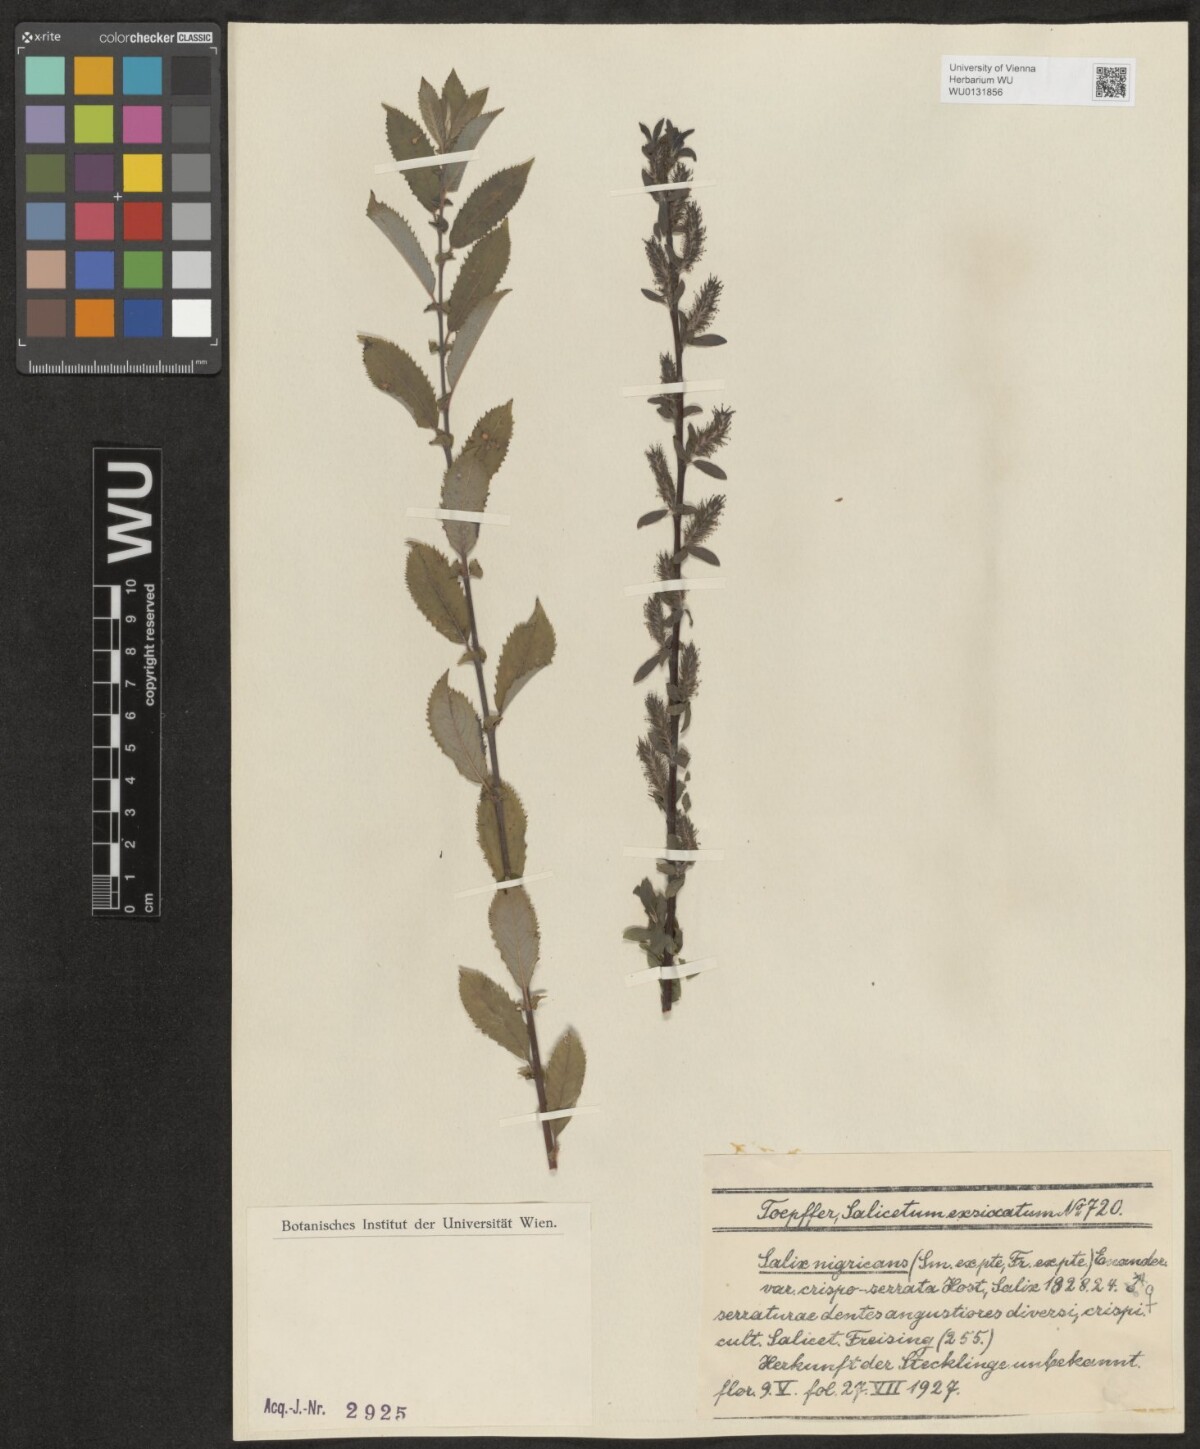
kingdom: Plantae
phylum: Tracheophyta
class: Magnoliopsida
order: Malpighiales
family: Salicaceae
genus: Salix
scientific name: Salix myrsinifolia
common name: Dark-leaved willow
